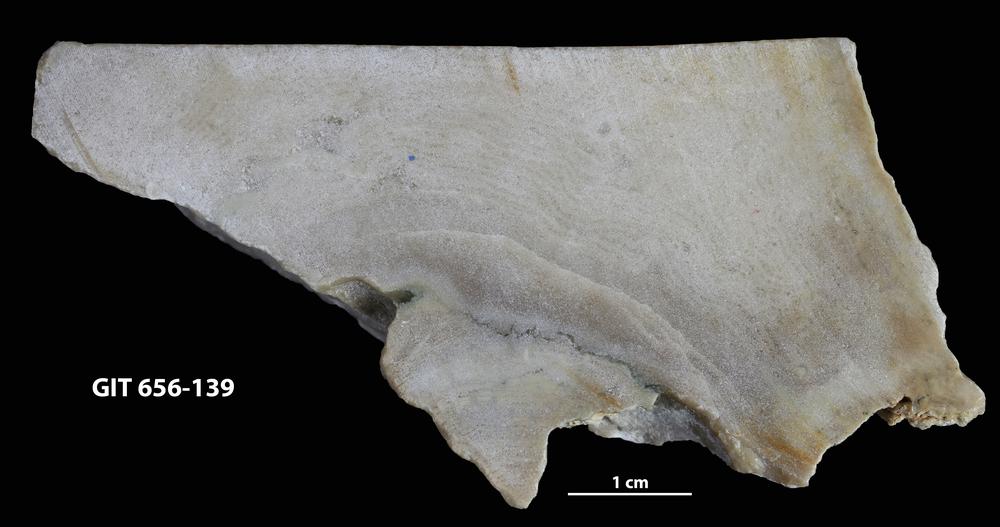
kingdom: Animalia
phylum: Porifera
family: Stromatoporellidae
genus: Simplexodictyon
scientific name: Simplexodictyon
